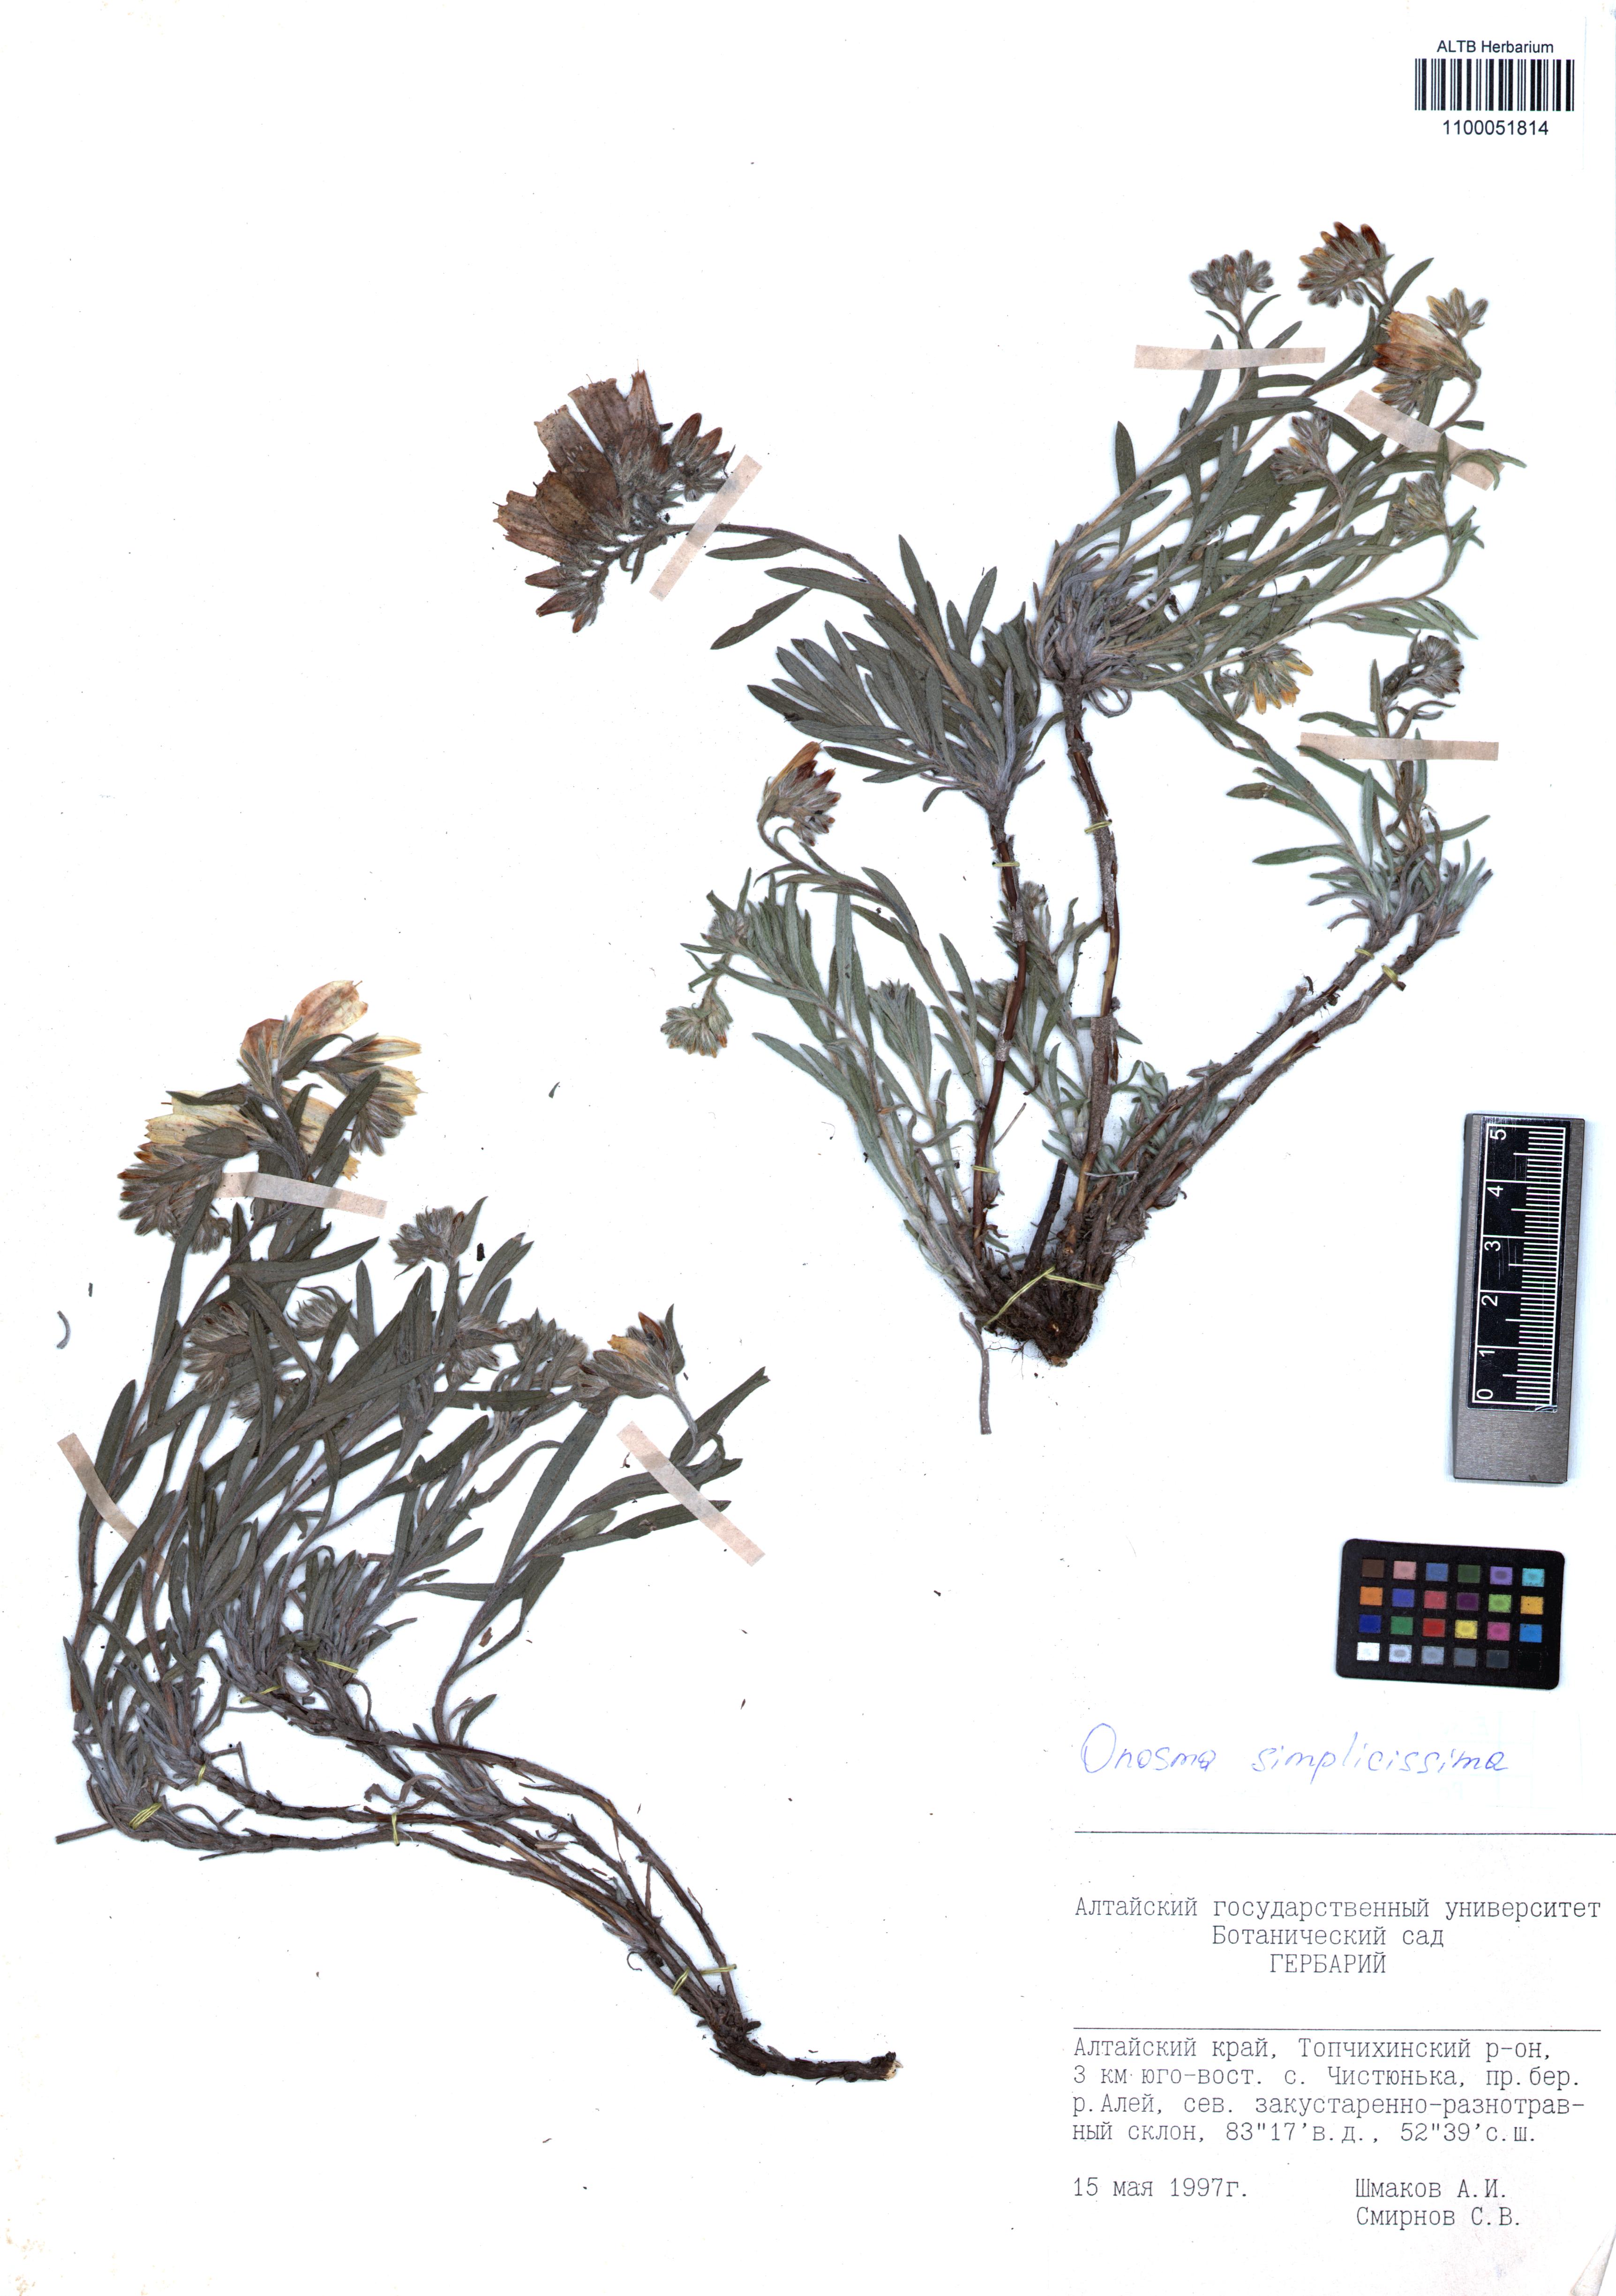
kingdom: Plantae
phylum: Tracheophyta
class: Magnoliopsida
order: Boraginales
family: Boraginaceae
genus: Onosma
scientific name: Onosma simplicissima
